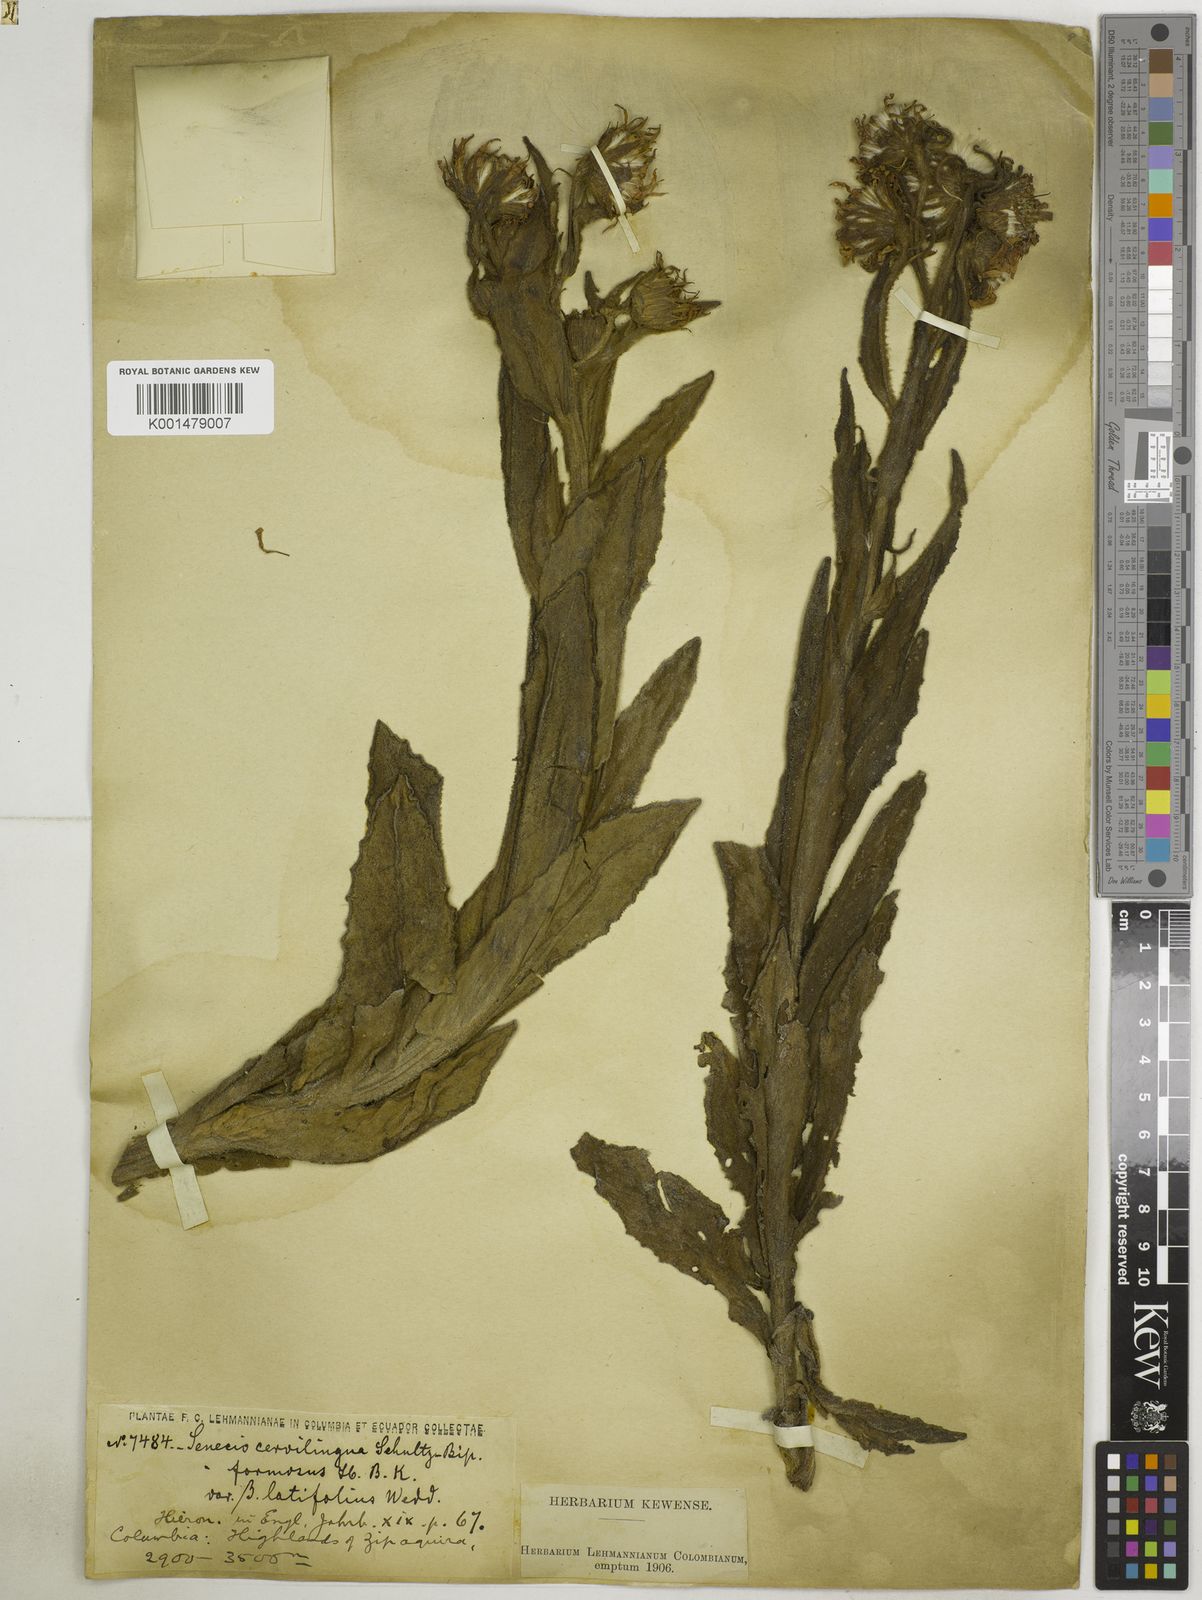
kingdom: Plantae
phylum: Tracheophyta
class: Magnoliopsida
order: Asterales
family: Asteraceae
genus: Senecio
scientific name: Senecio formosus
